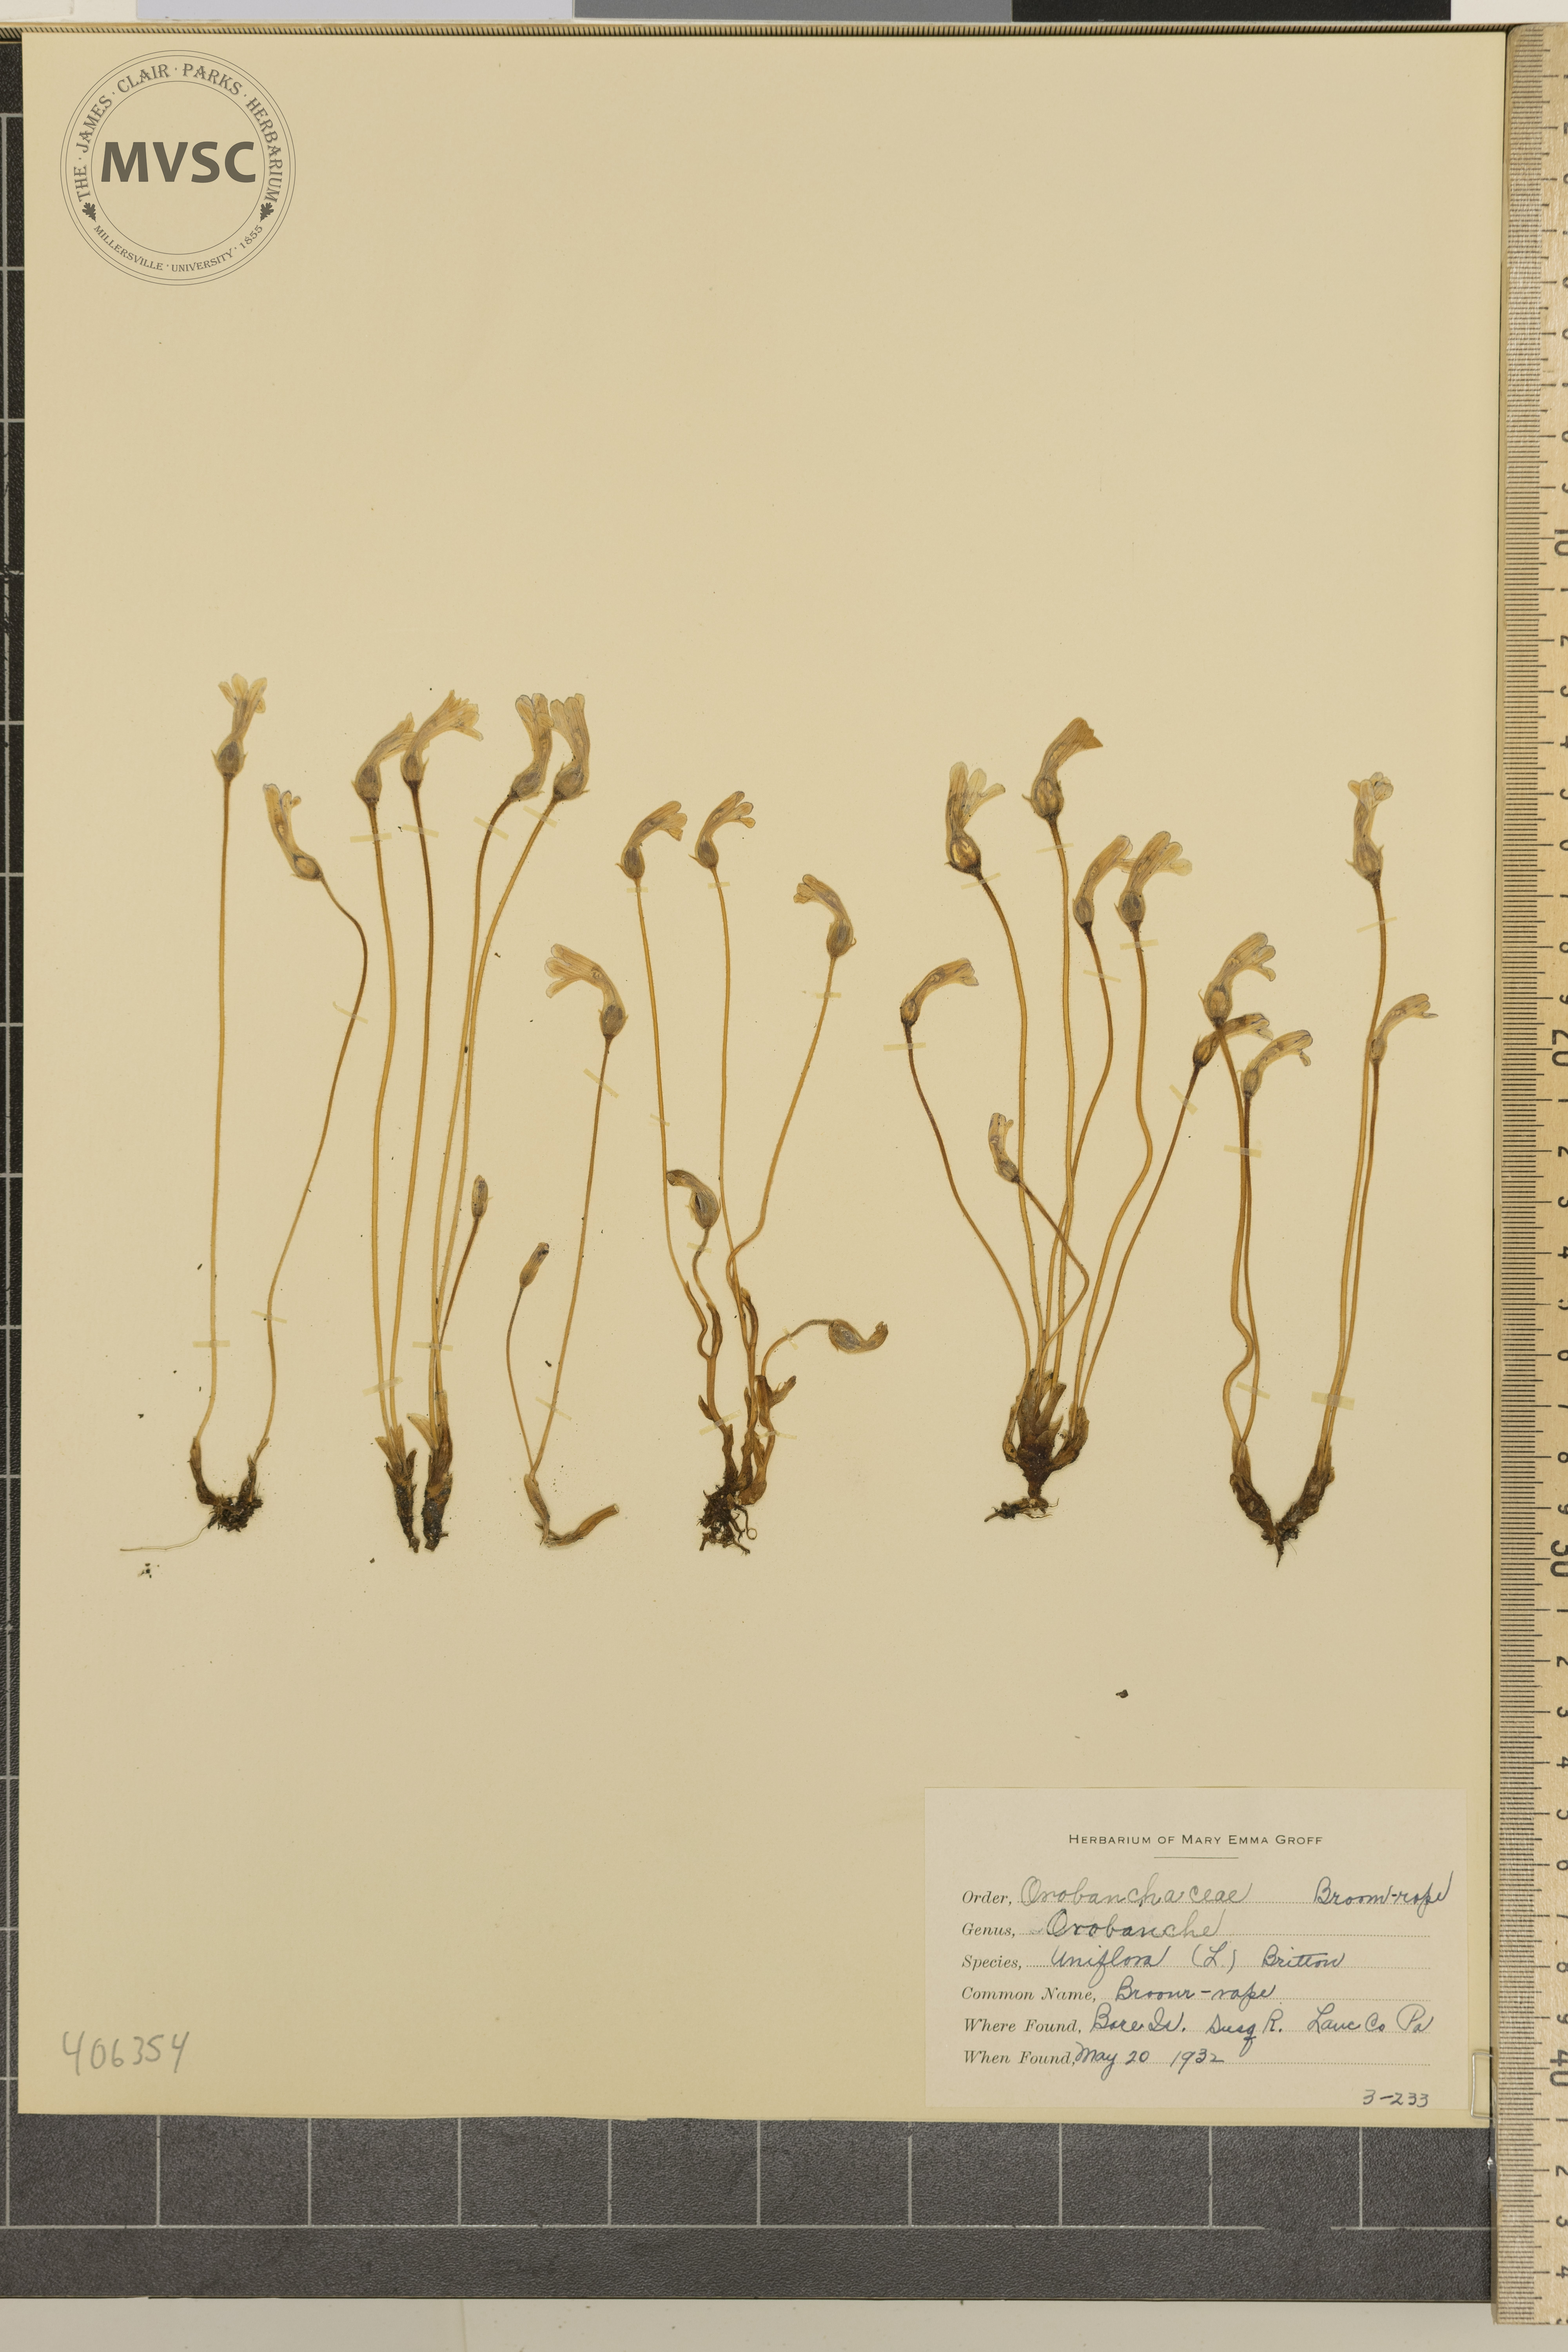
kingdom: Plantae
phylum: Tracheophyta
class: Magnoliopsida
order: Lamiales
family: Orobanchaceae
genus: Aphyllon
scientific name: Aphyllon uniflorum
